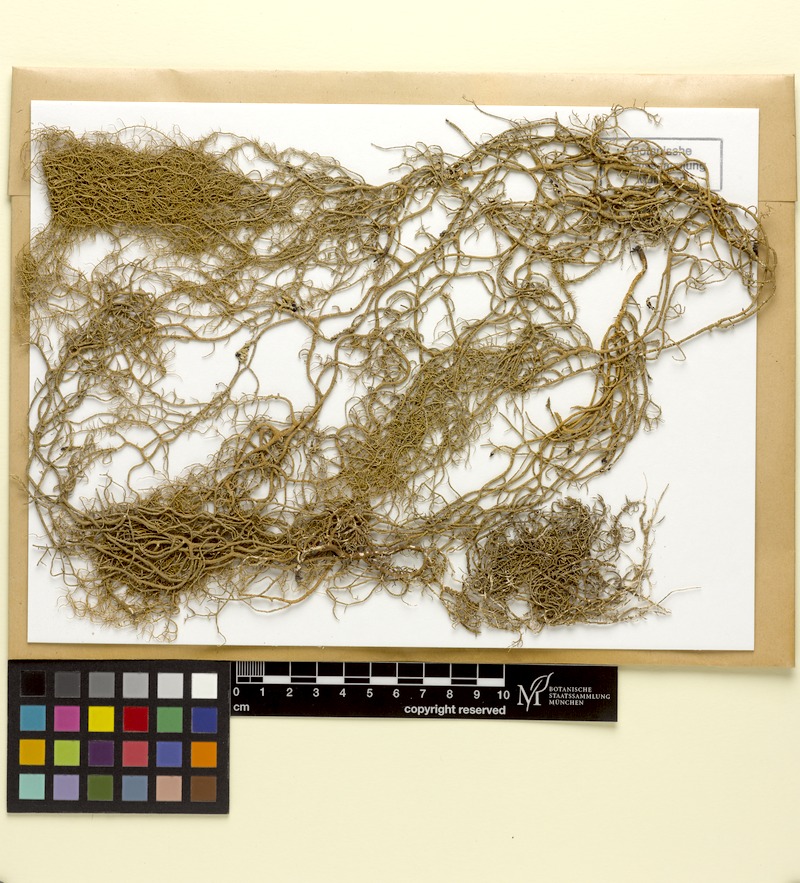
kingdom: Fungi
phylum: Ascomycota
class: Lecanoromycetes
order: Lecanorales
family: Parmeliaceae
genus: Usnea
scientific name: Usnea ceratina
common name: Warty beard lichen
